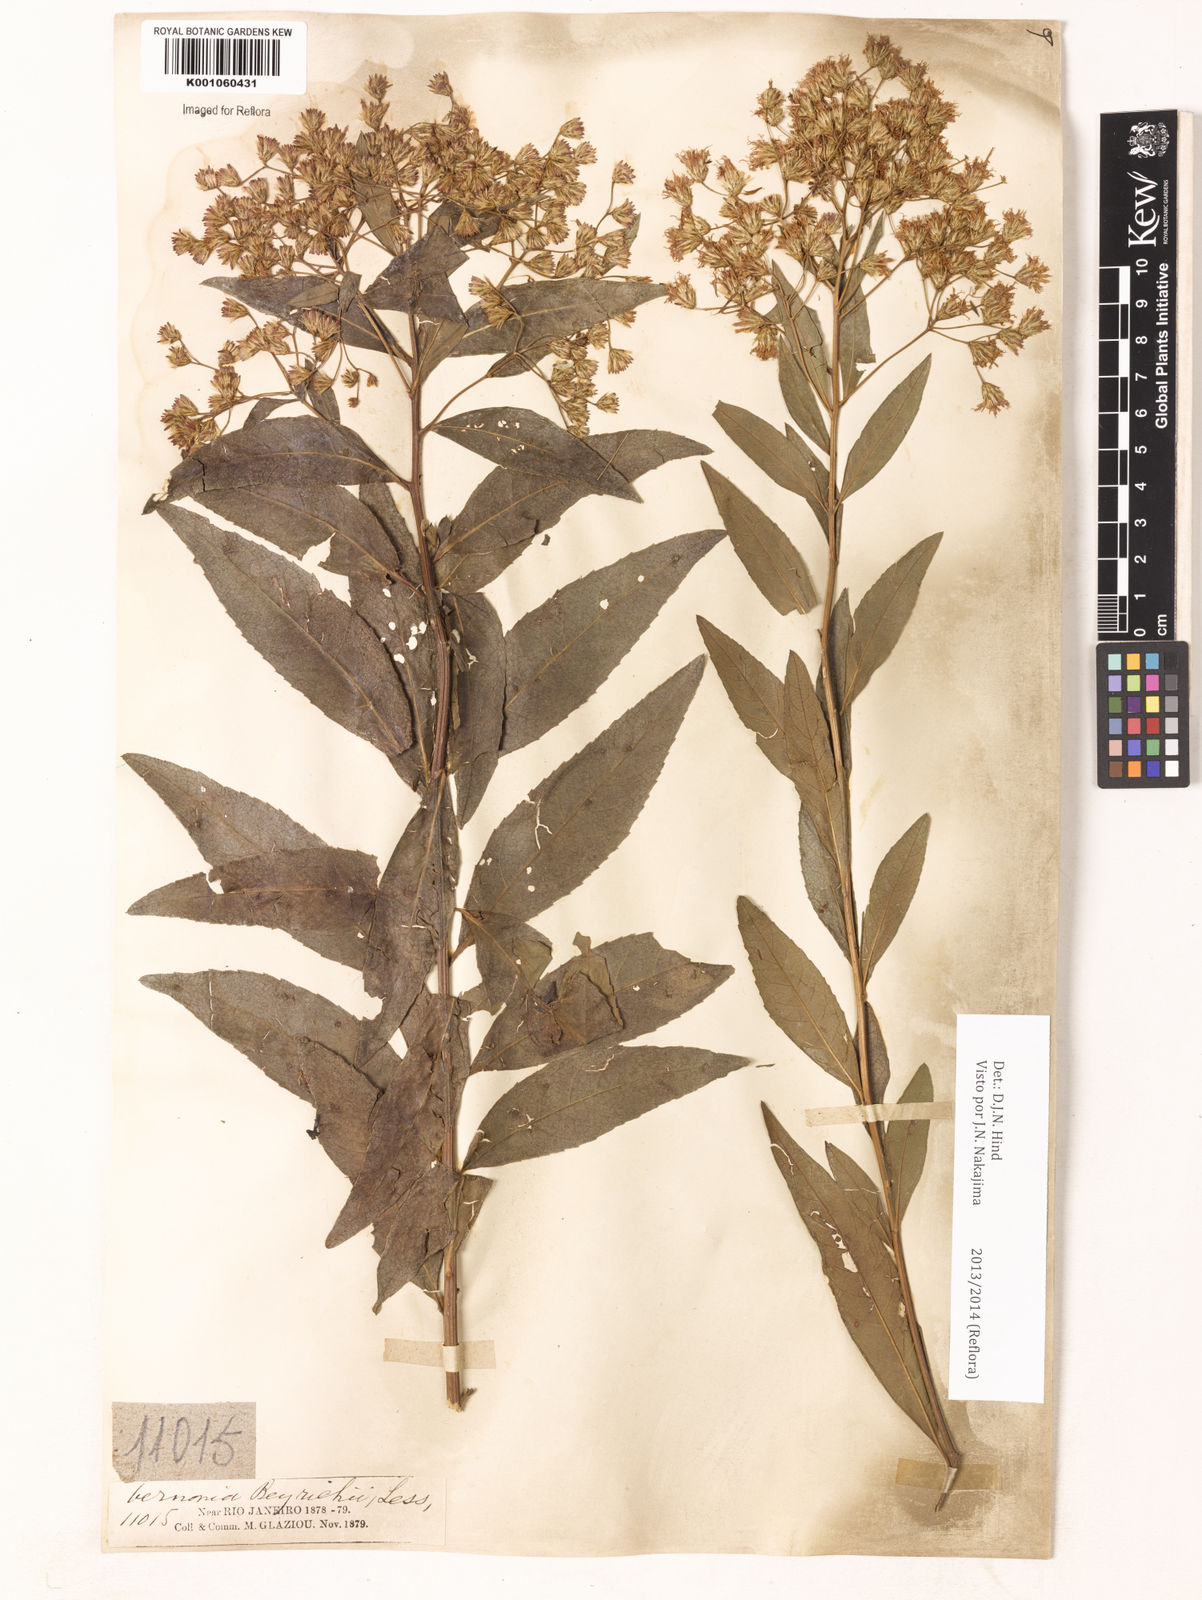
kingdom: Plantae
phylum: Tracheophyta
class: Magnoliopsida
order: Asterales
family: Asteraceae
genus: Vernonanthura
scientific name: Vernonanthura beyrichii
